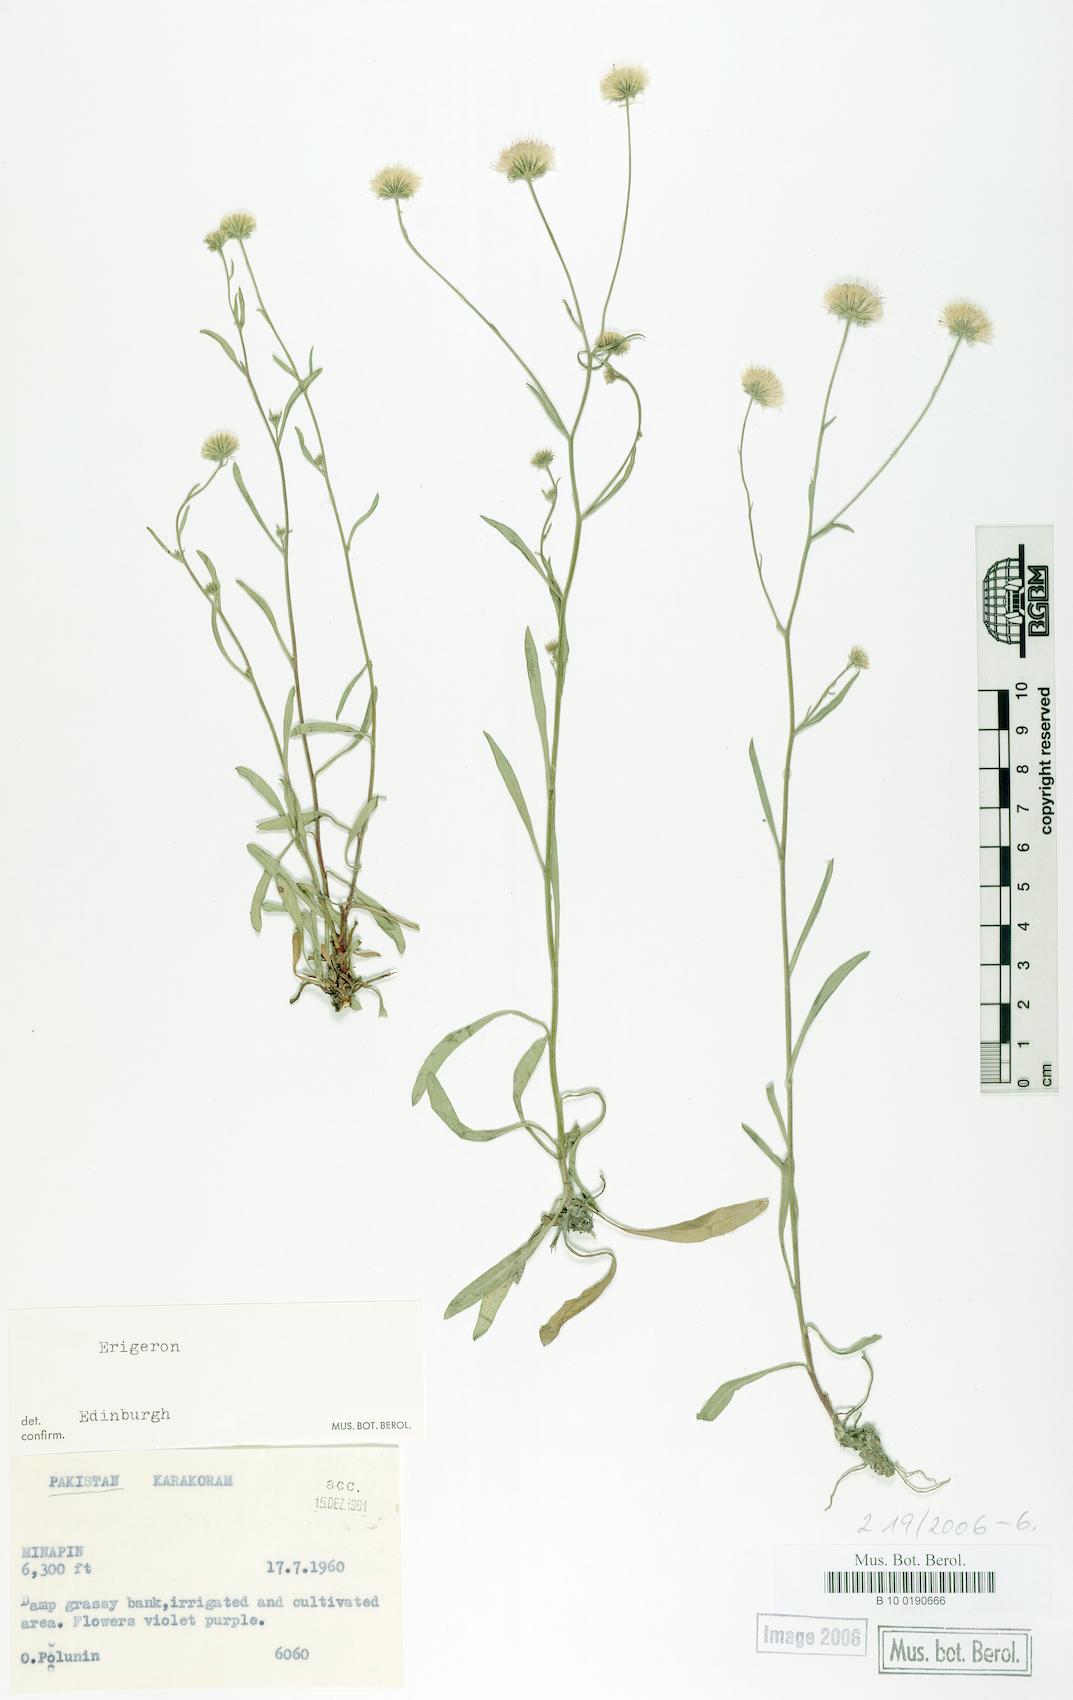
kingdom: Plantae
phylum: Tracheophyta
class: Magnoliopsida
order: Asterales
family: Asteraceae
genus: Erigeron
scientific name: Erigeron
